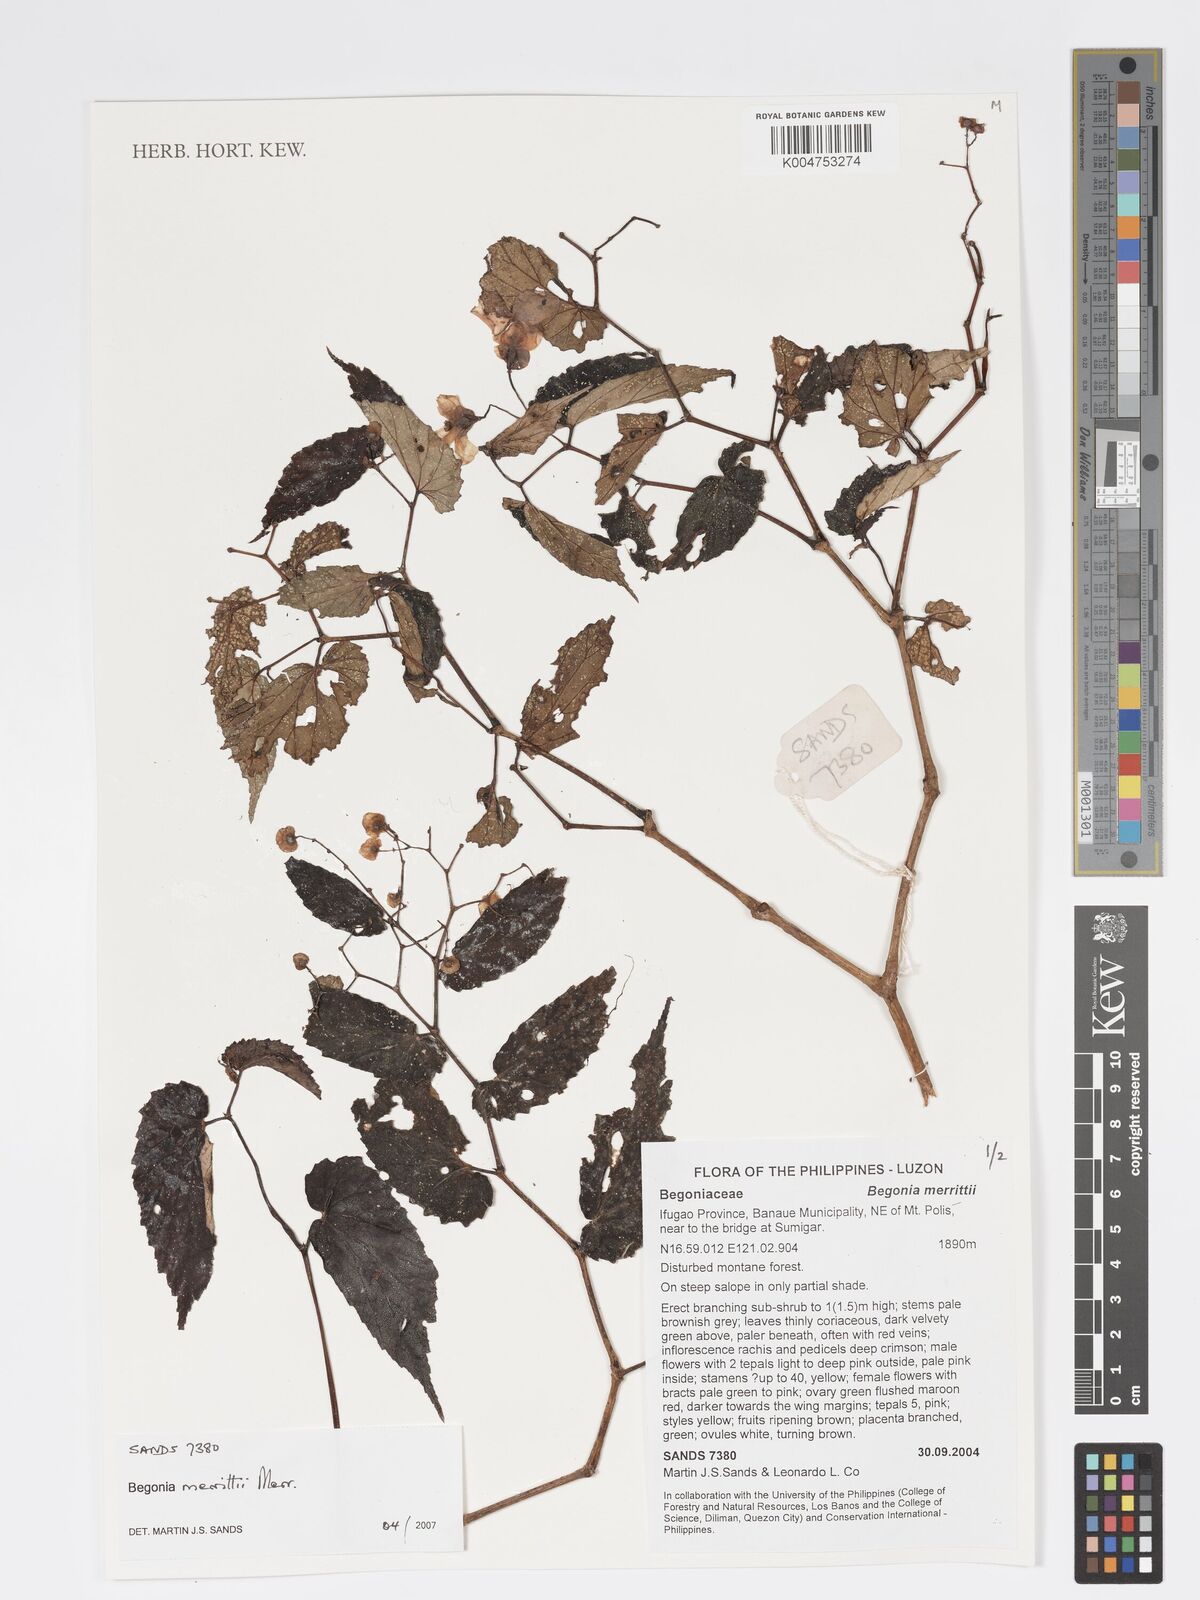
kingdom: Plantae
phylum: Tracheophyta
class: Magnoliopsida
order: Cucurbitales
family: Begoniaceae
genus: Begonia
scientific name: Begonia merrittii
